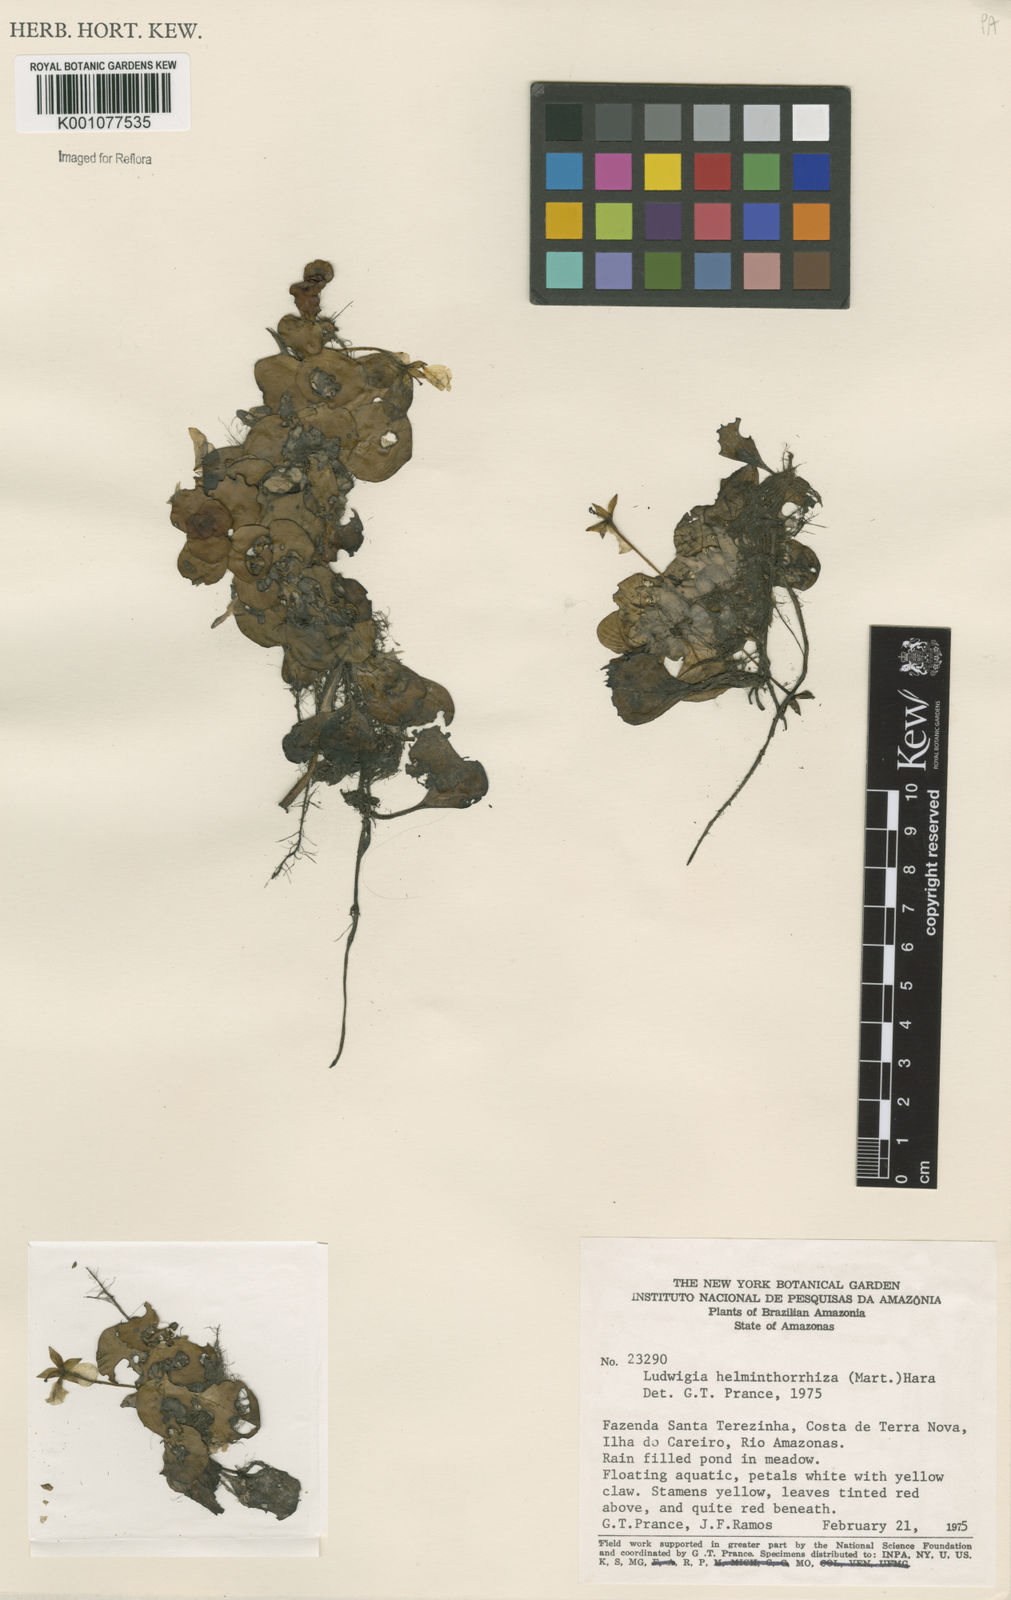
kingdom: Plantae
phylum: Tracheophyta
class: Magnoliopsida
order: Myrtales
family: Onagraceae
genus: Ludwigia
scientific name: Ludwigia helminthorrhiza
